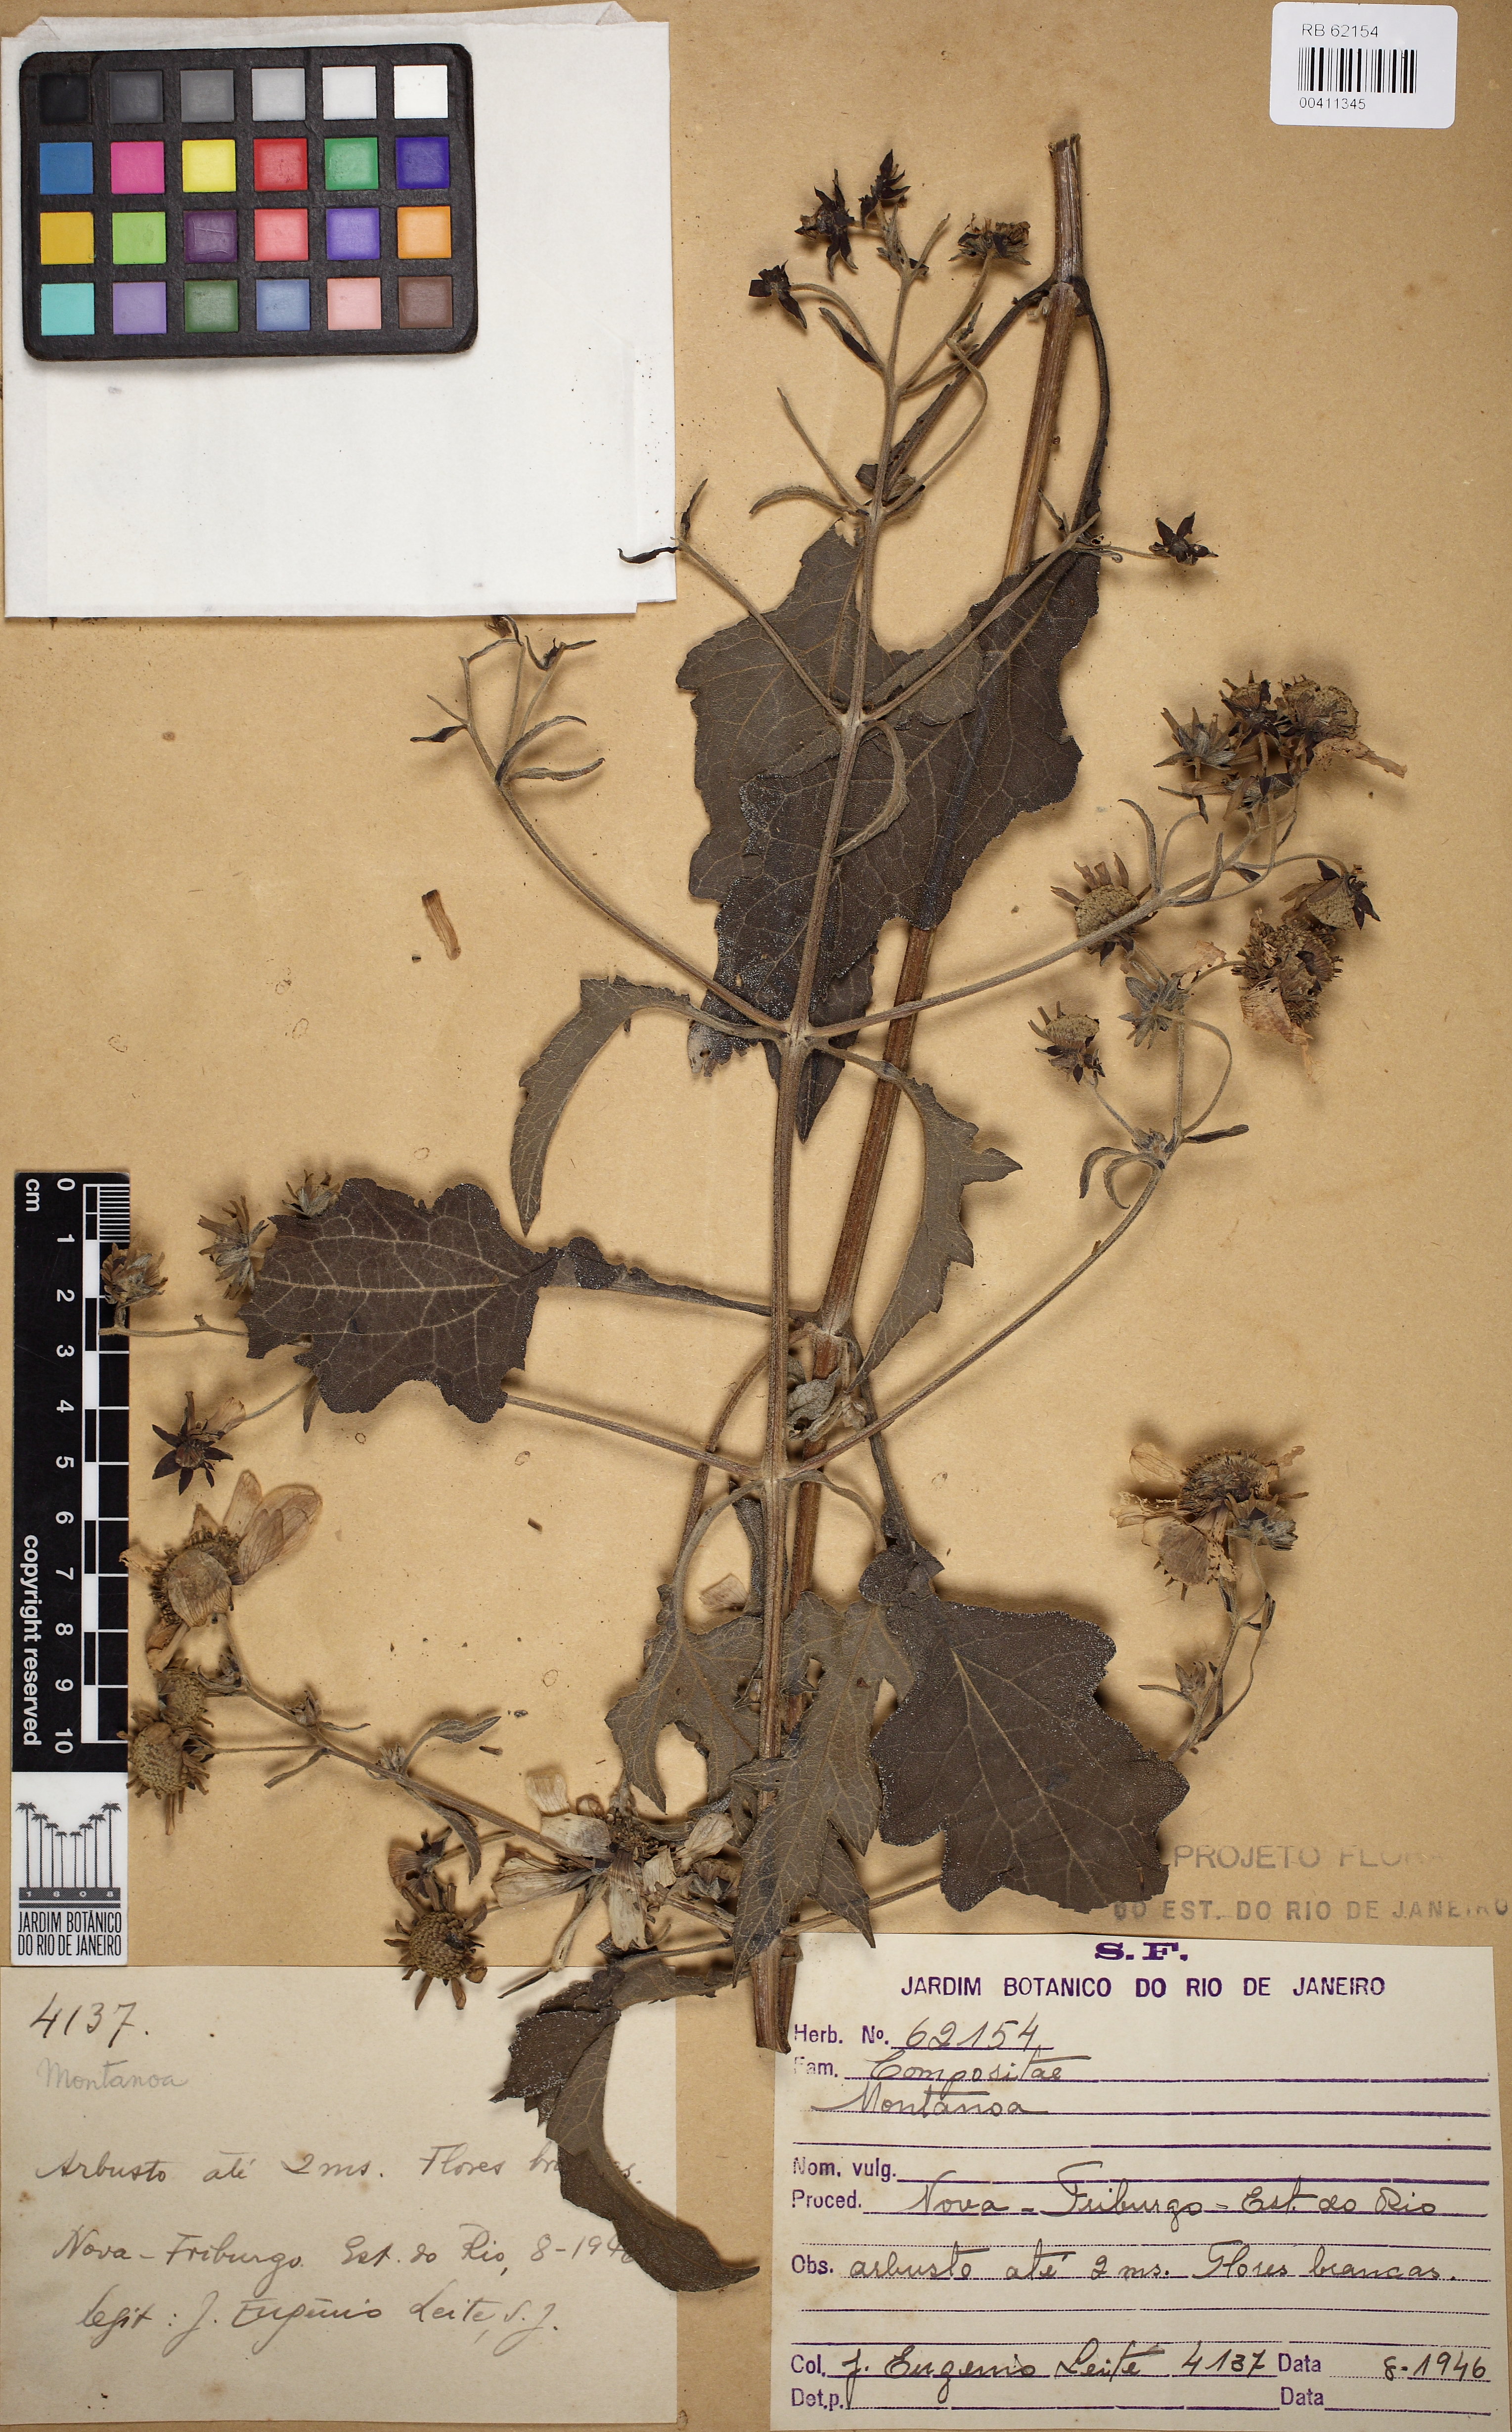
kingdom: Plantae
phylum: Tracheophyta
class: Magnoliopsida
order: Asterales
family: Asteraceae
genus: Montanoa
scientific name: Montanoa
